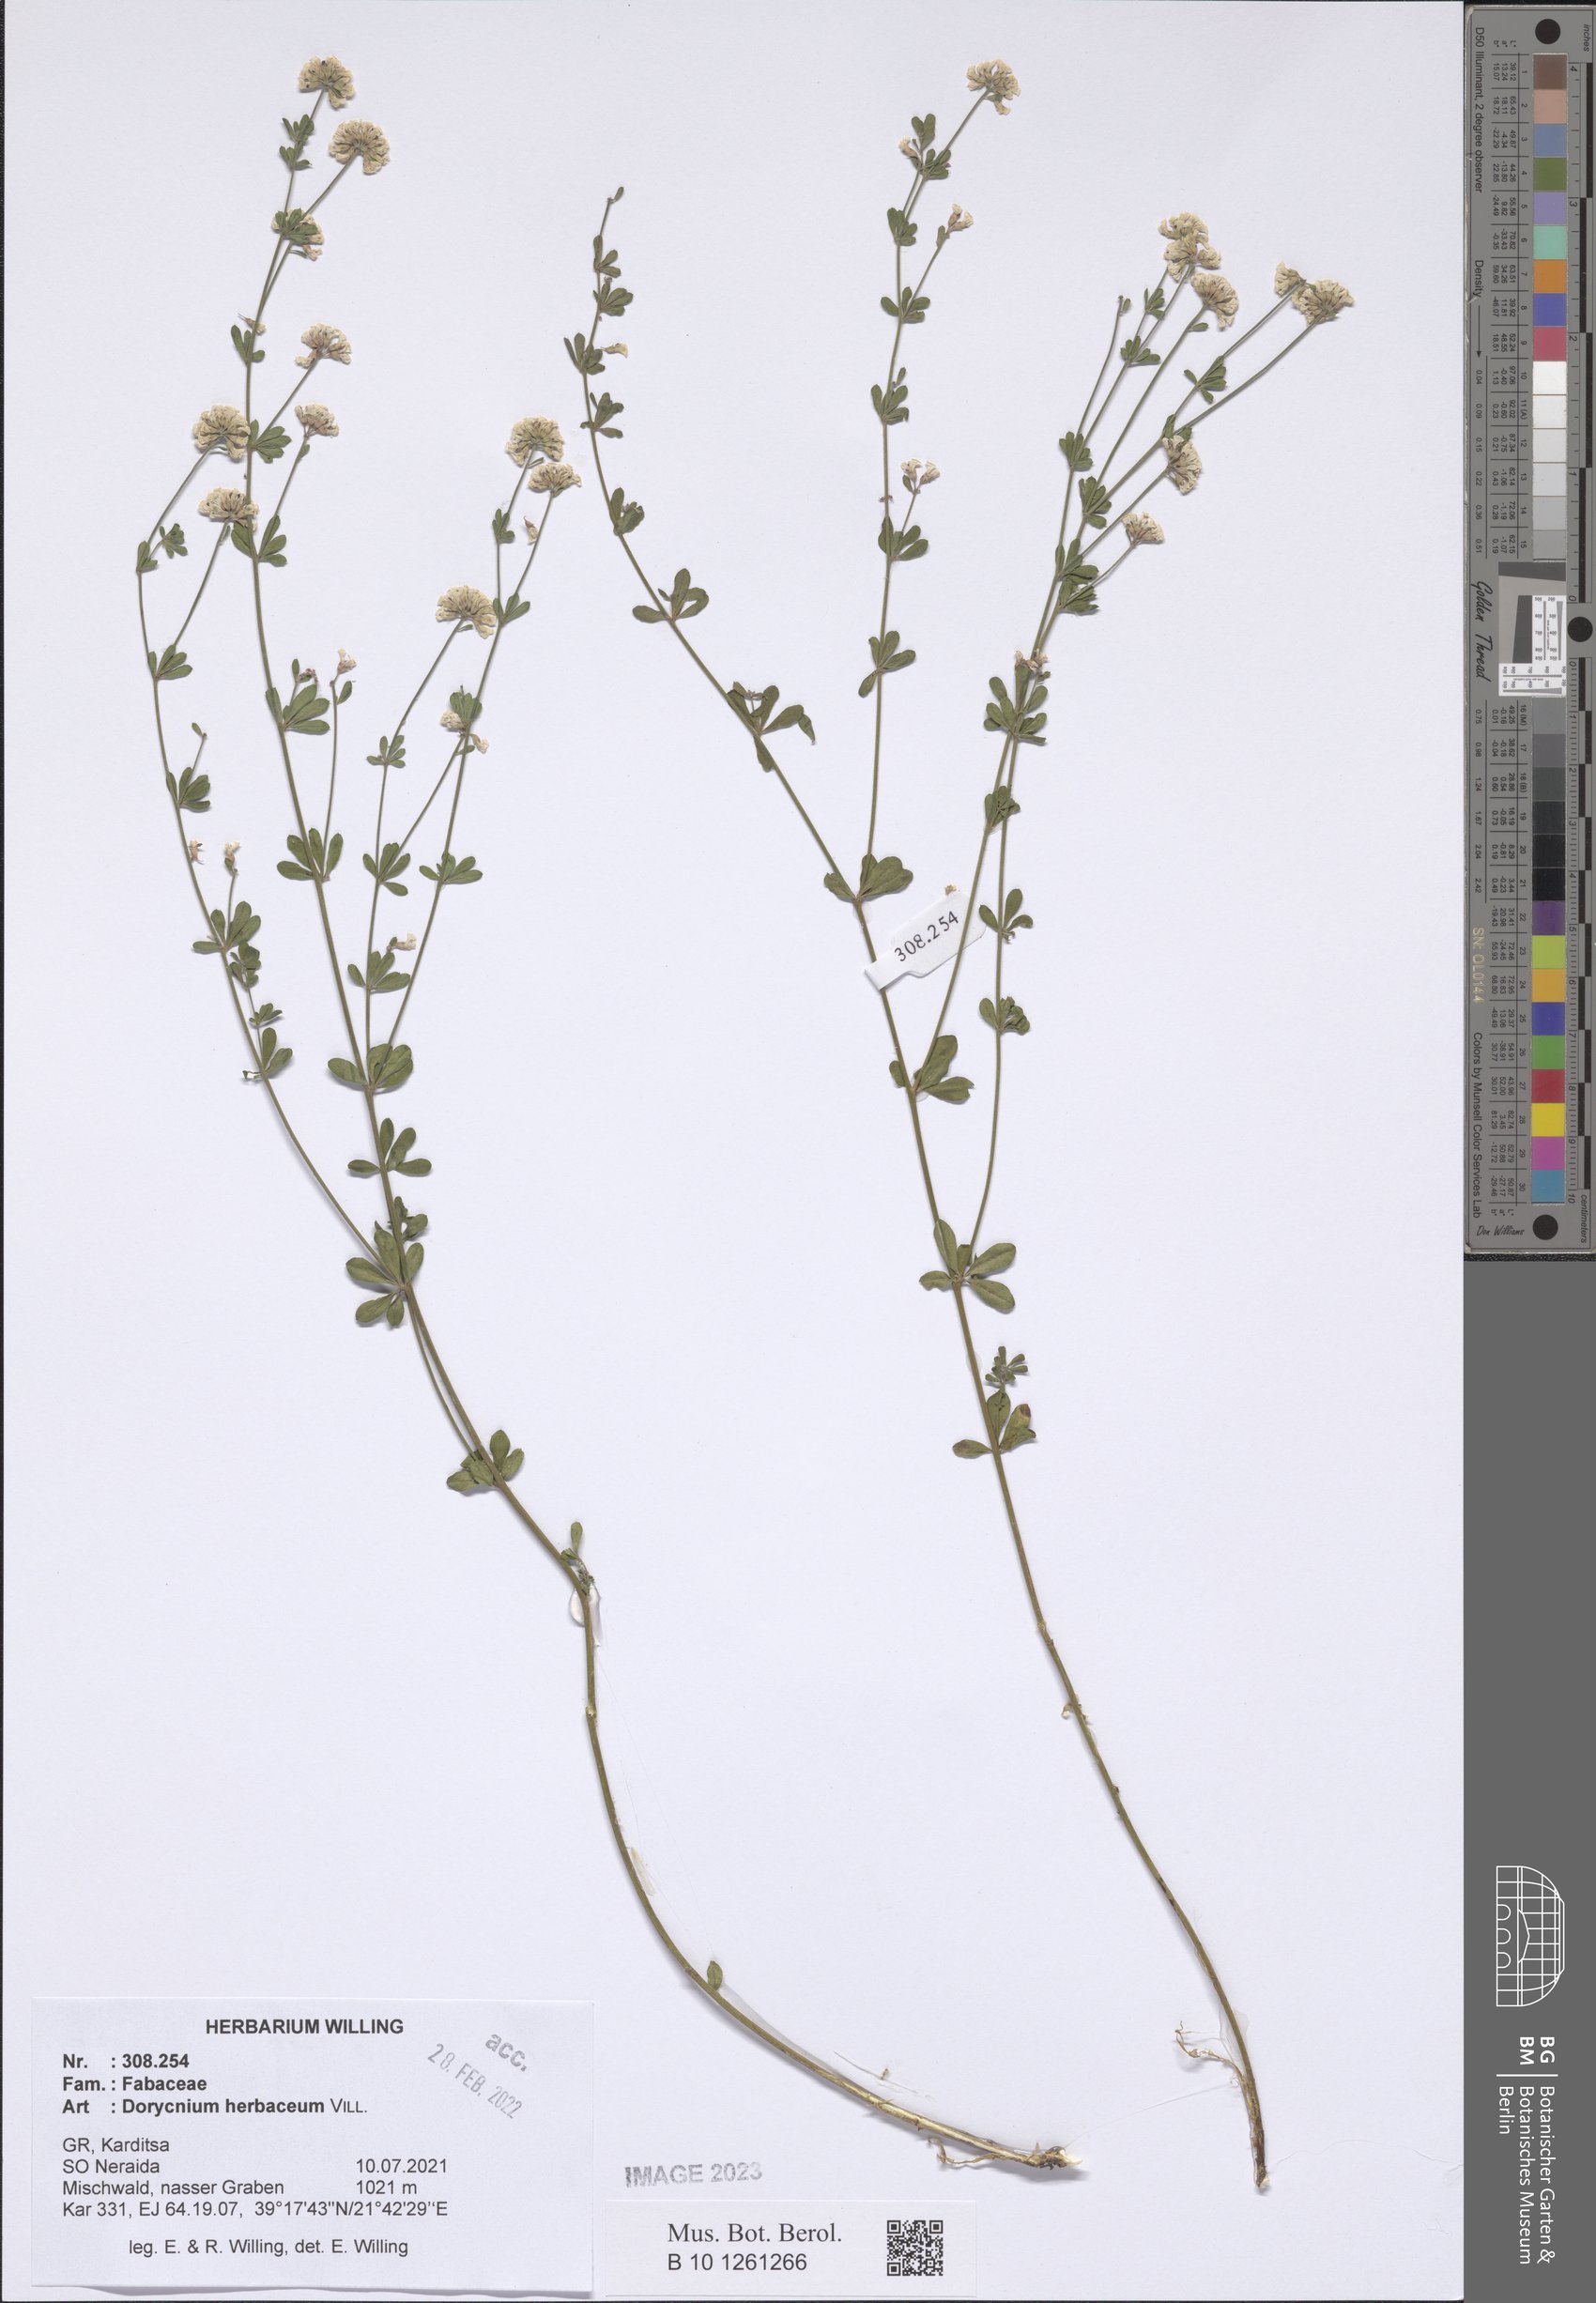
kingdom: Plantae
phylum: Tracheophyta
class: Magnoliopsida
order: Fabales
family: Fabaceae
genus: Lotus
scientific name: Lotus herbaceus
